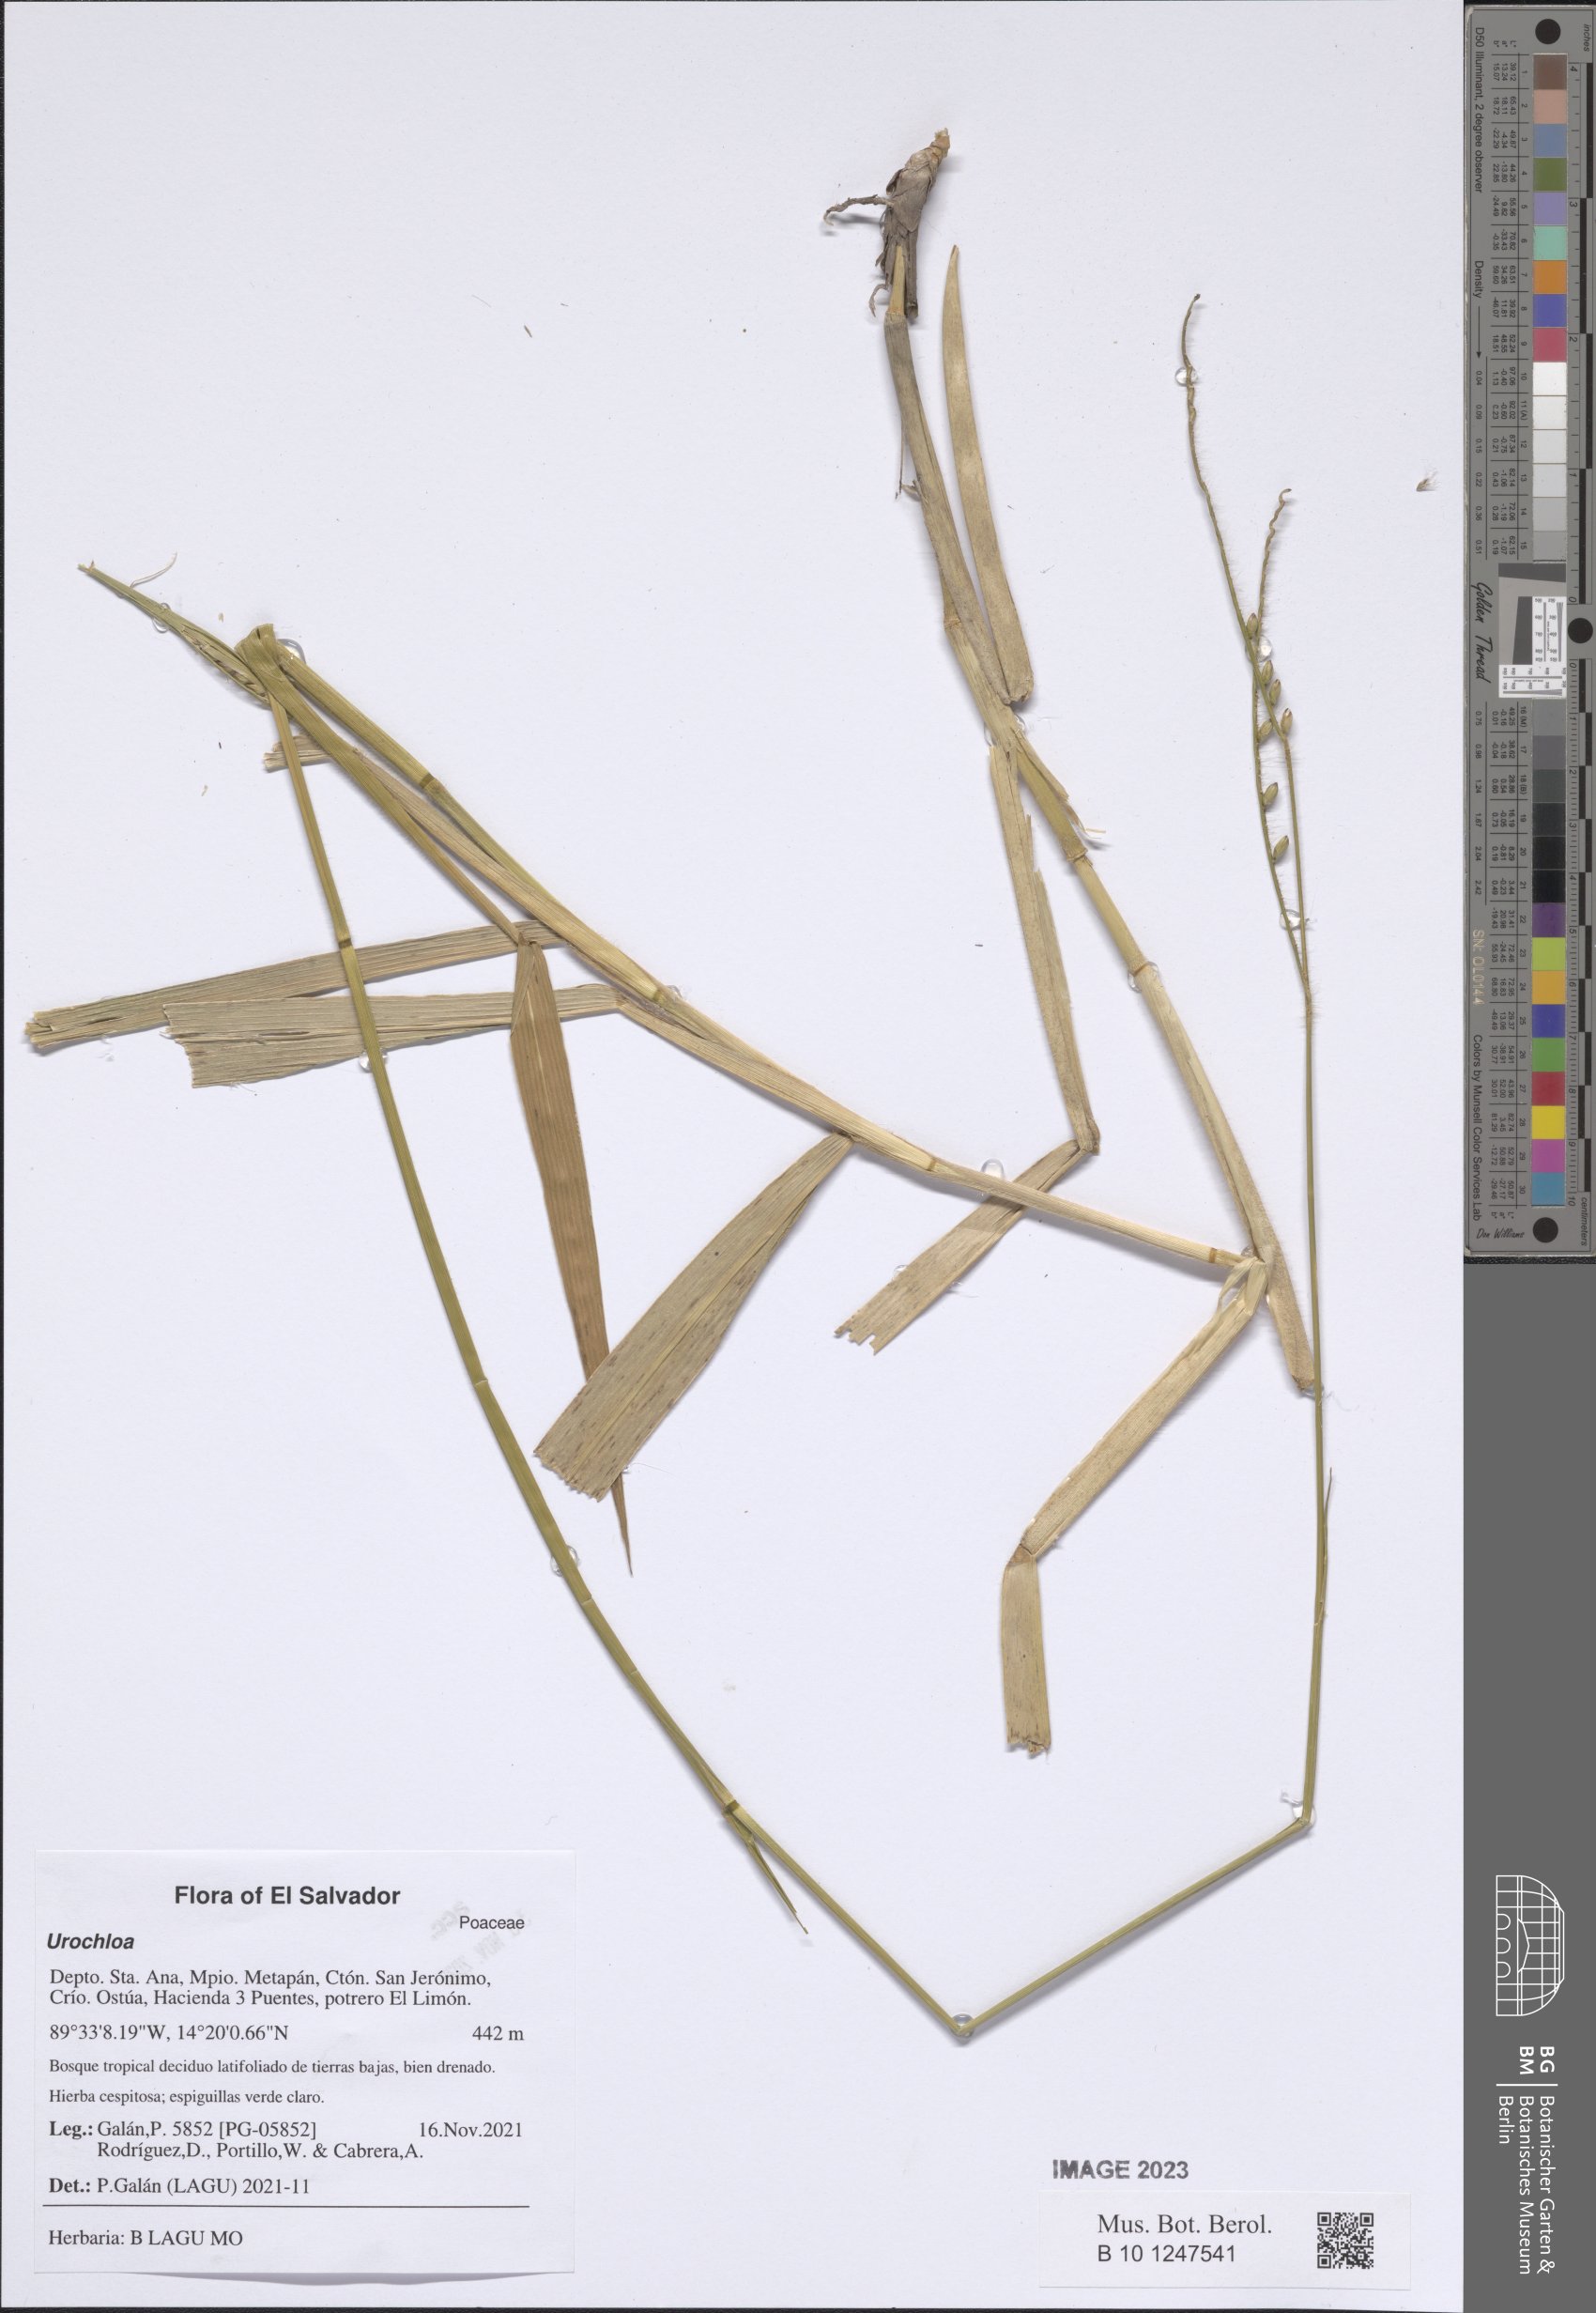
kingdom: Plantae
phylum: Tracheophyta
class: Liliopsida
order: Poales
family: Poaceae
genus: Urochloa
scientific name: Urochloa
